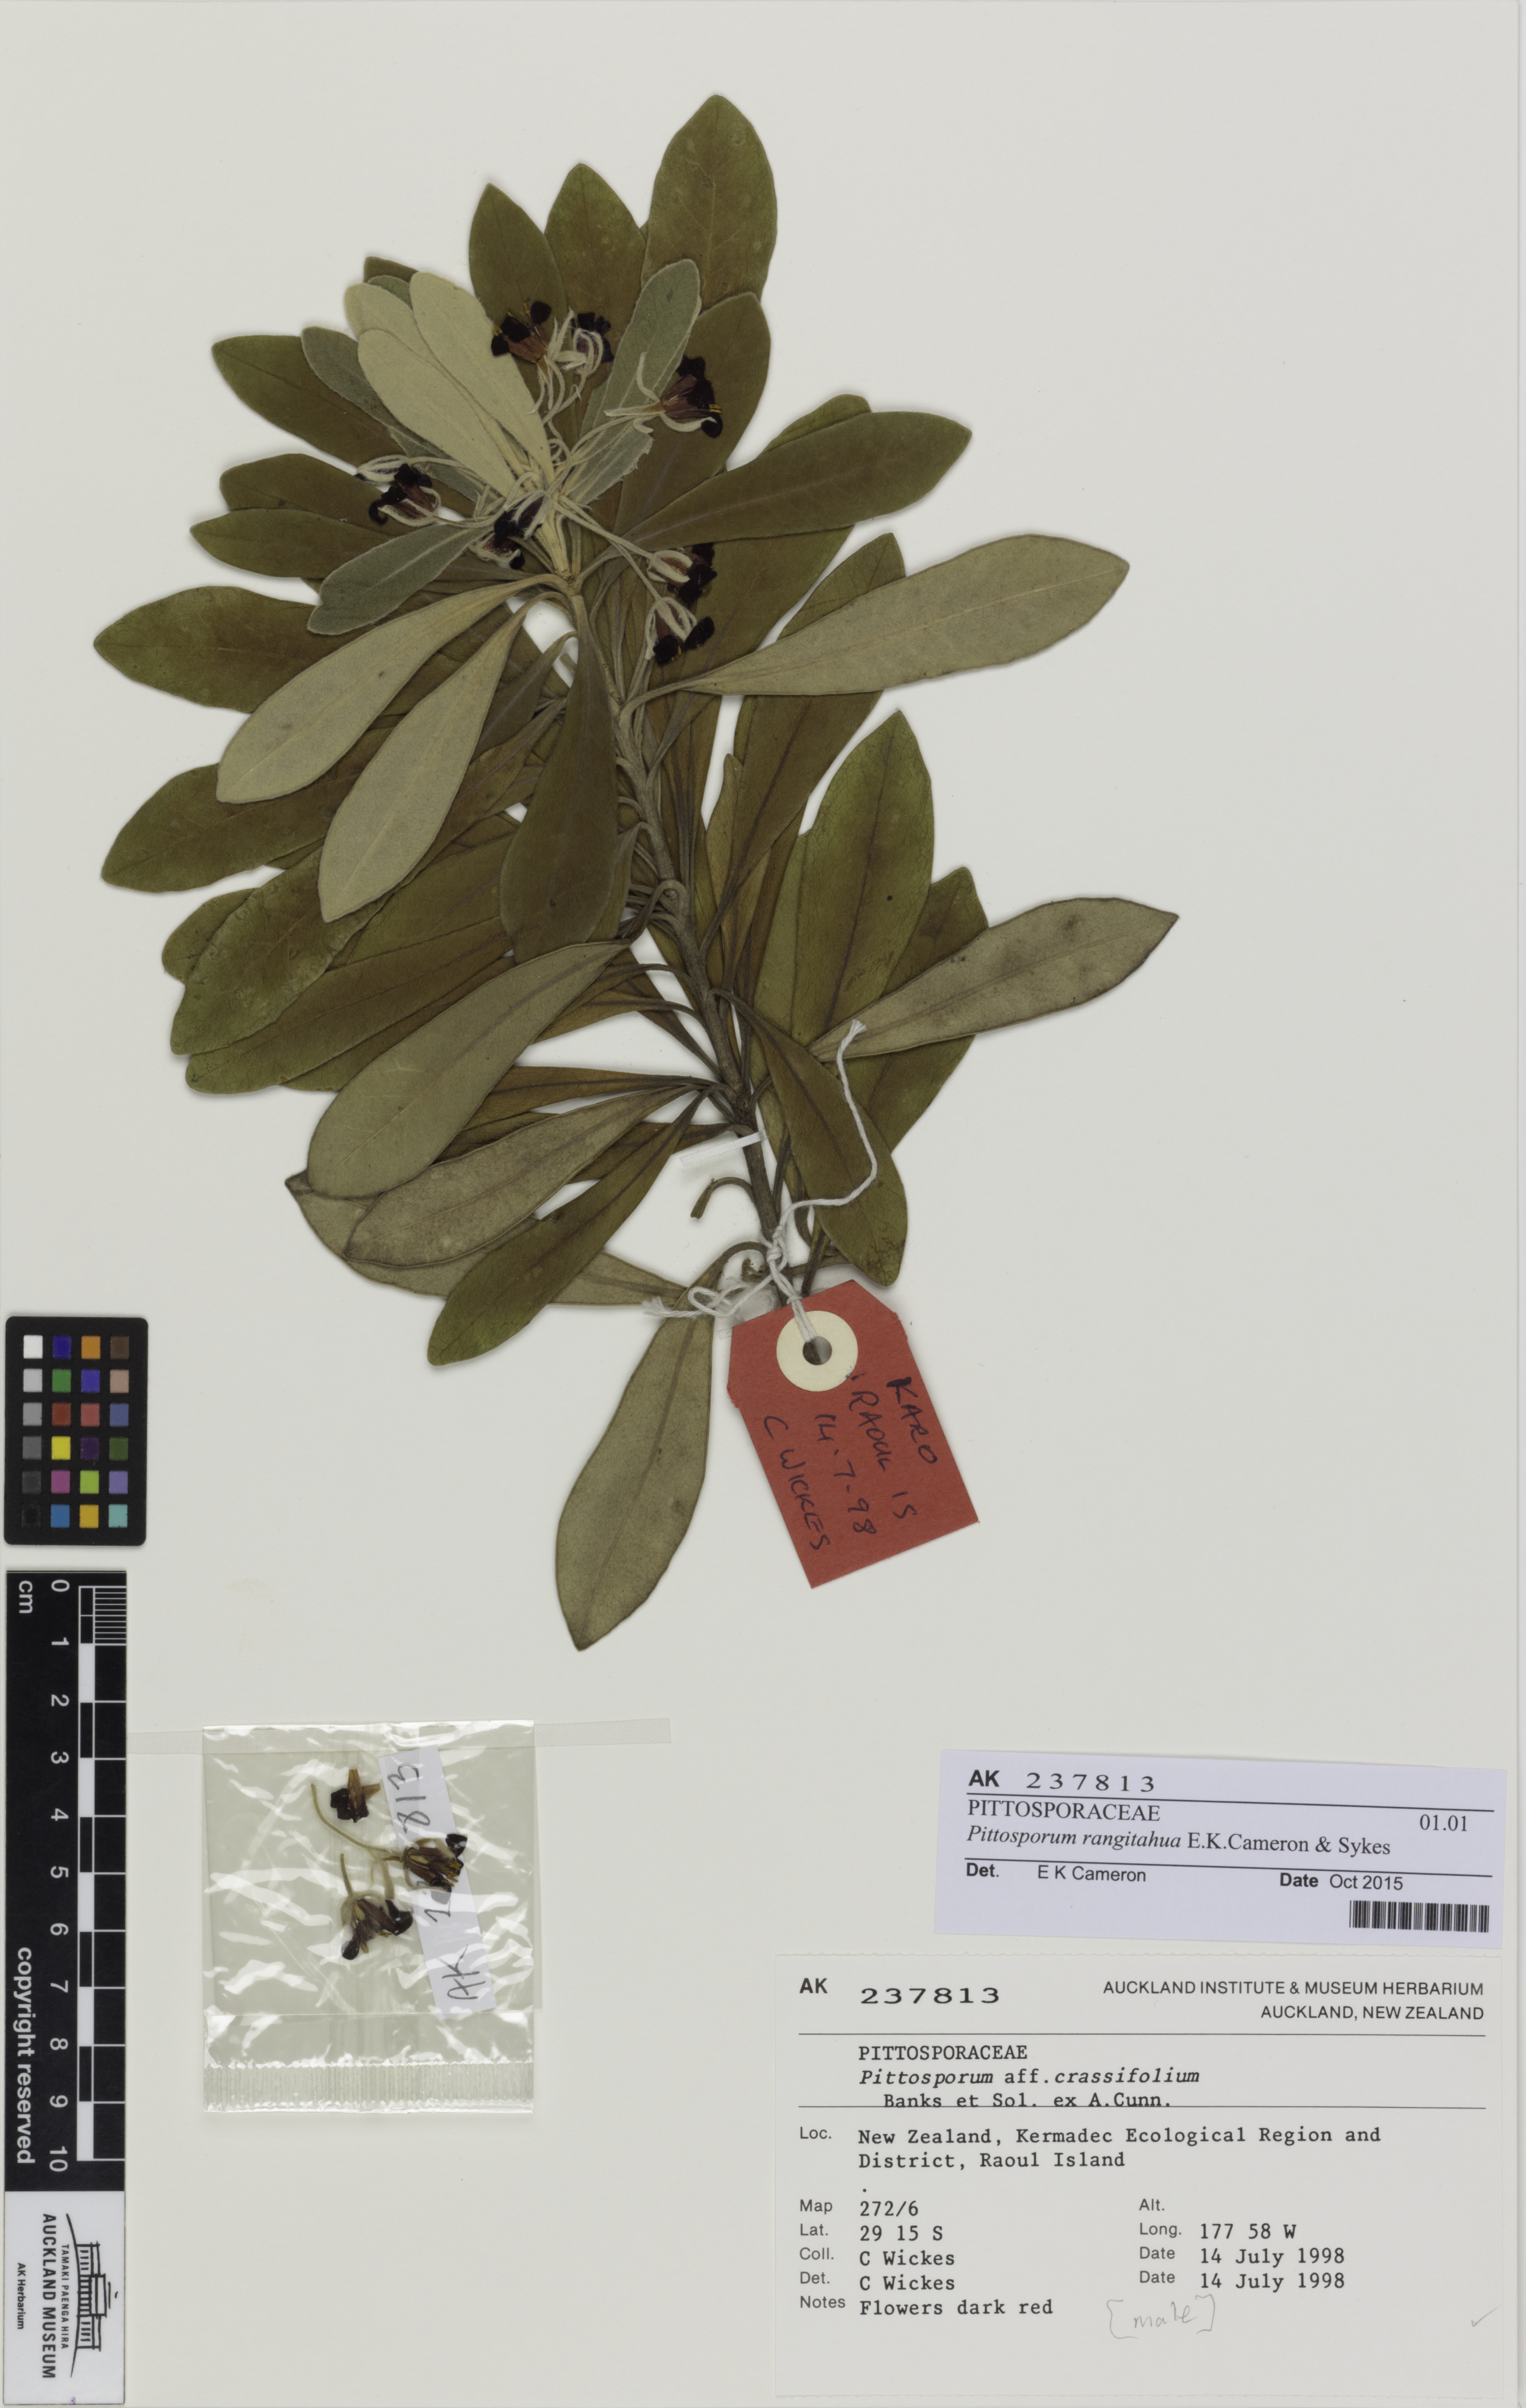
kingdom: Plantae
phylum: Tracheophyta
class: Magnoliopsida
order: Apiales
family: Pittosporaceae
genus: Pittosporum
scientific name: Pittosporum rangitahua
